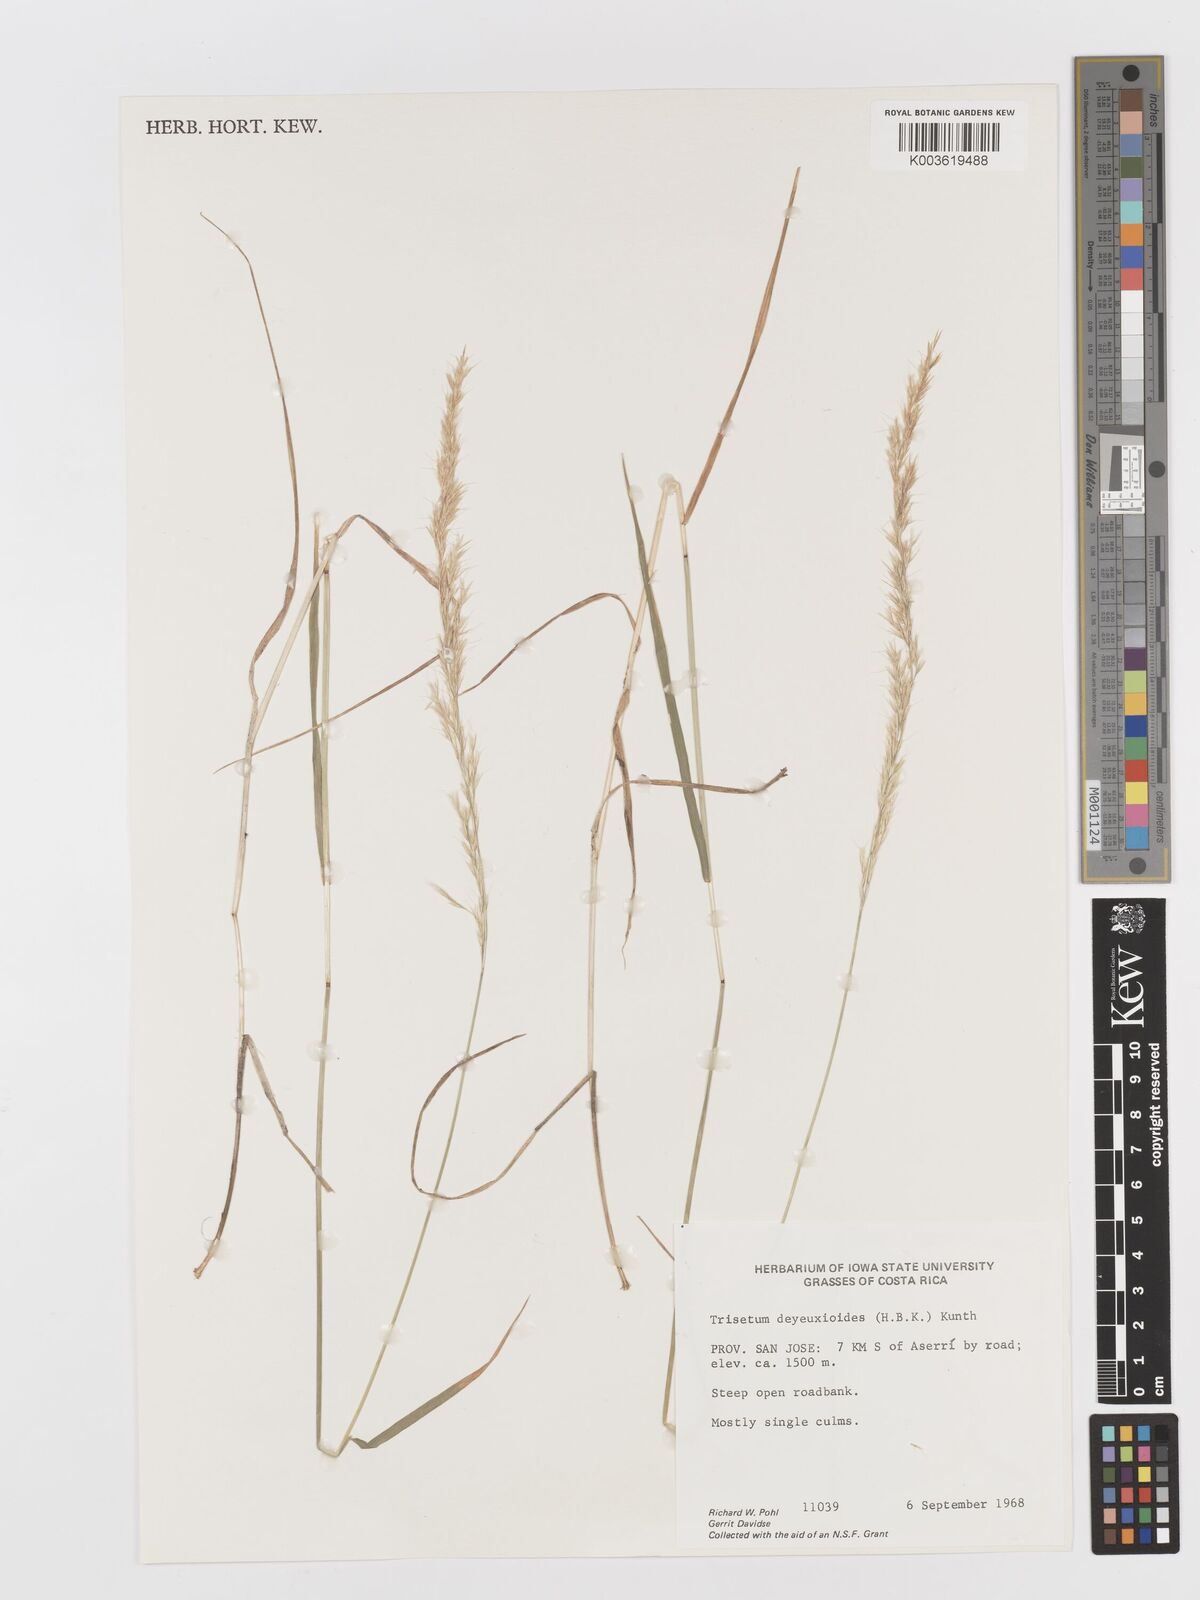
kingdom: Plantae
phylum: Tracheophyta
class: Liliopsida
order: Poales
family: Poaceae
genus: Peyritschia
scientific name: Peyritschia deyeuxioides
